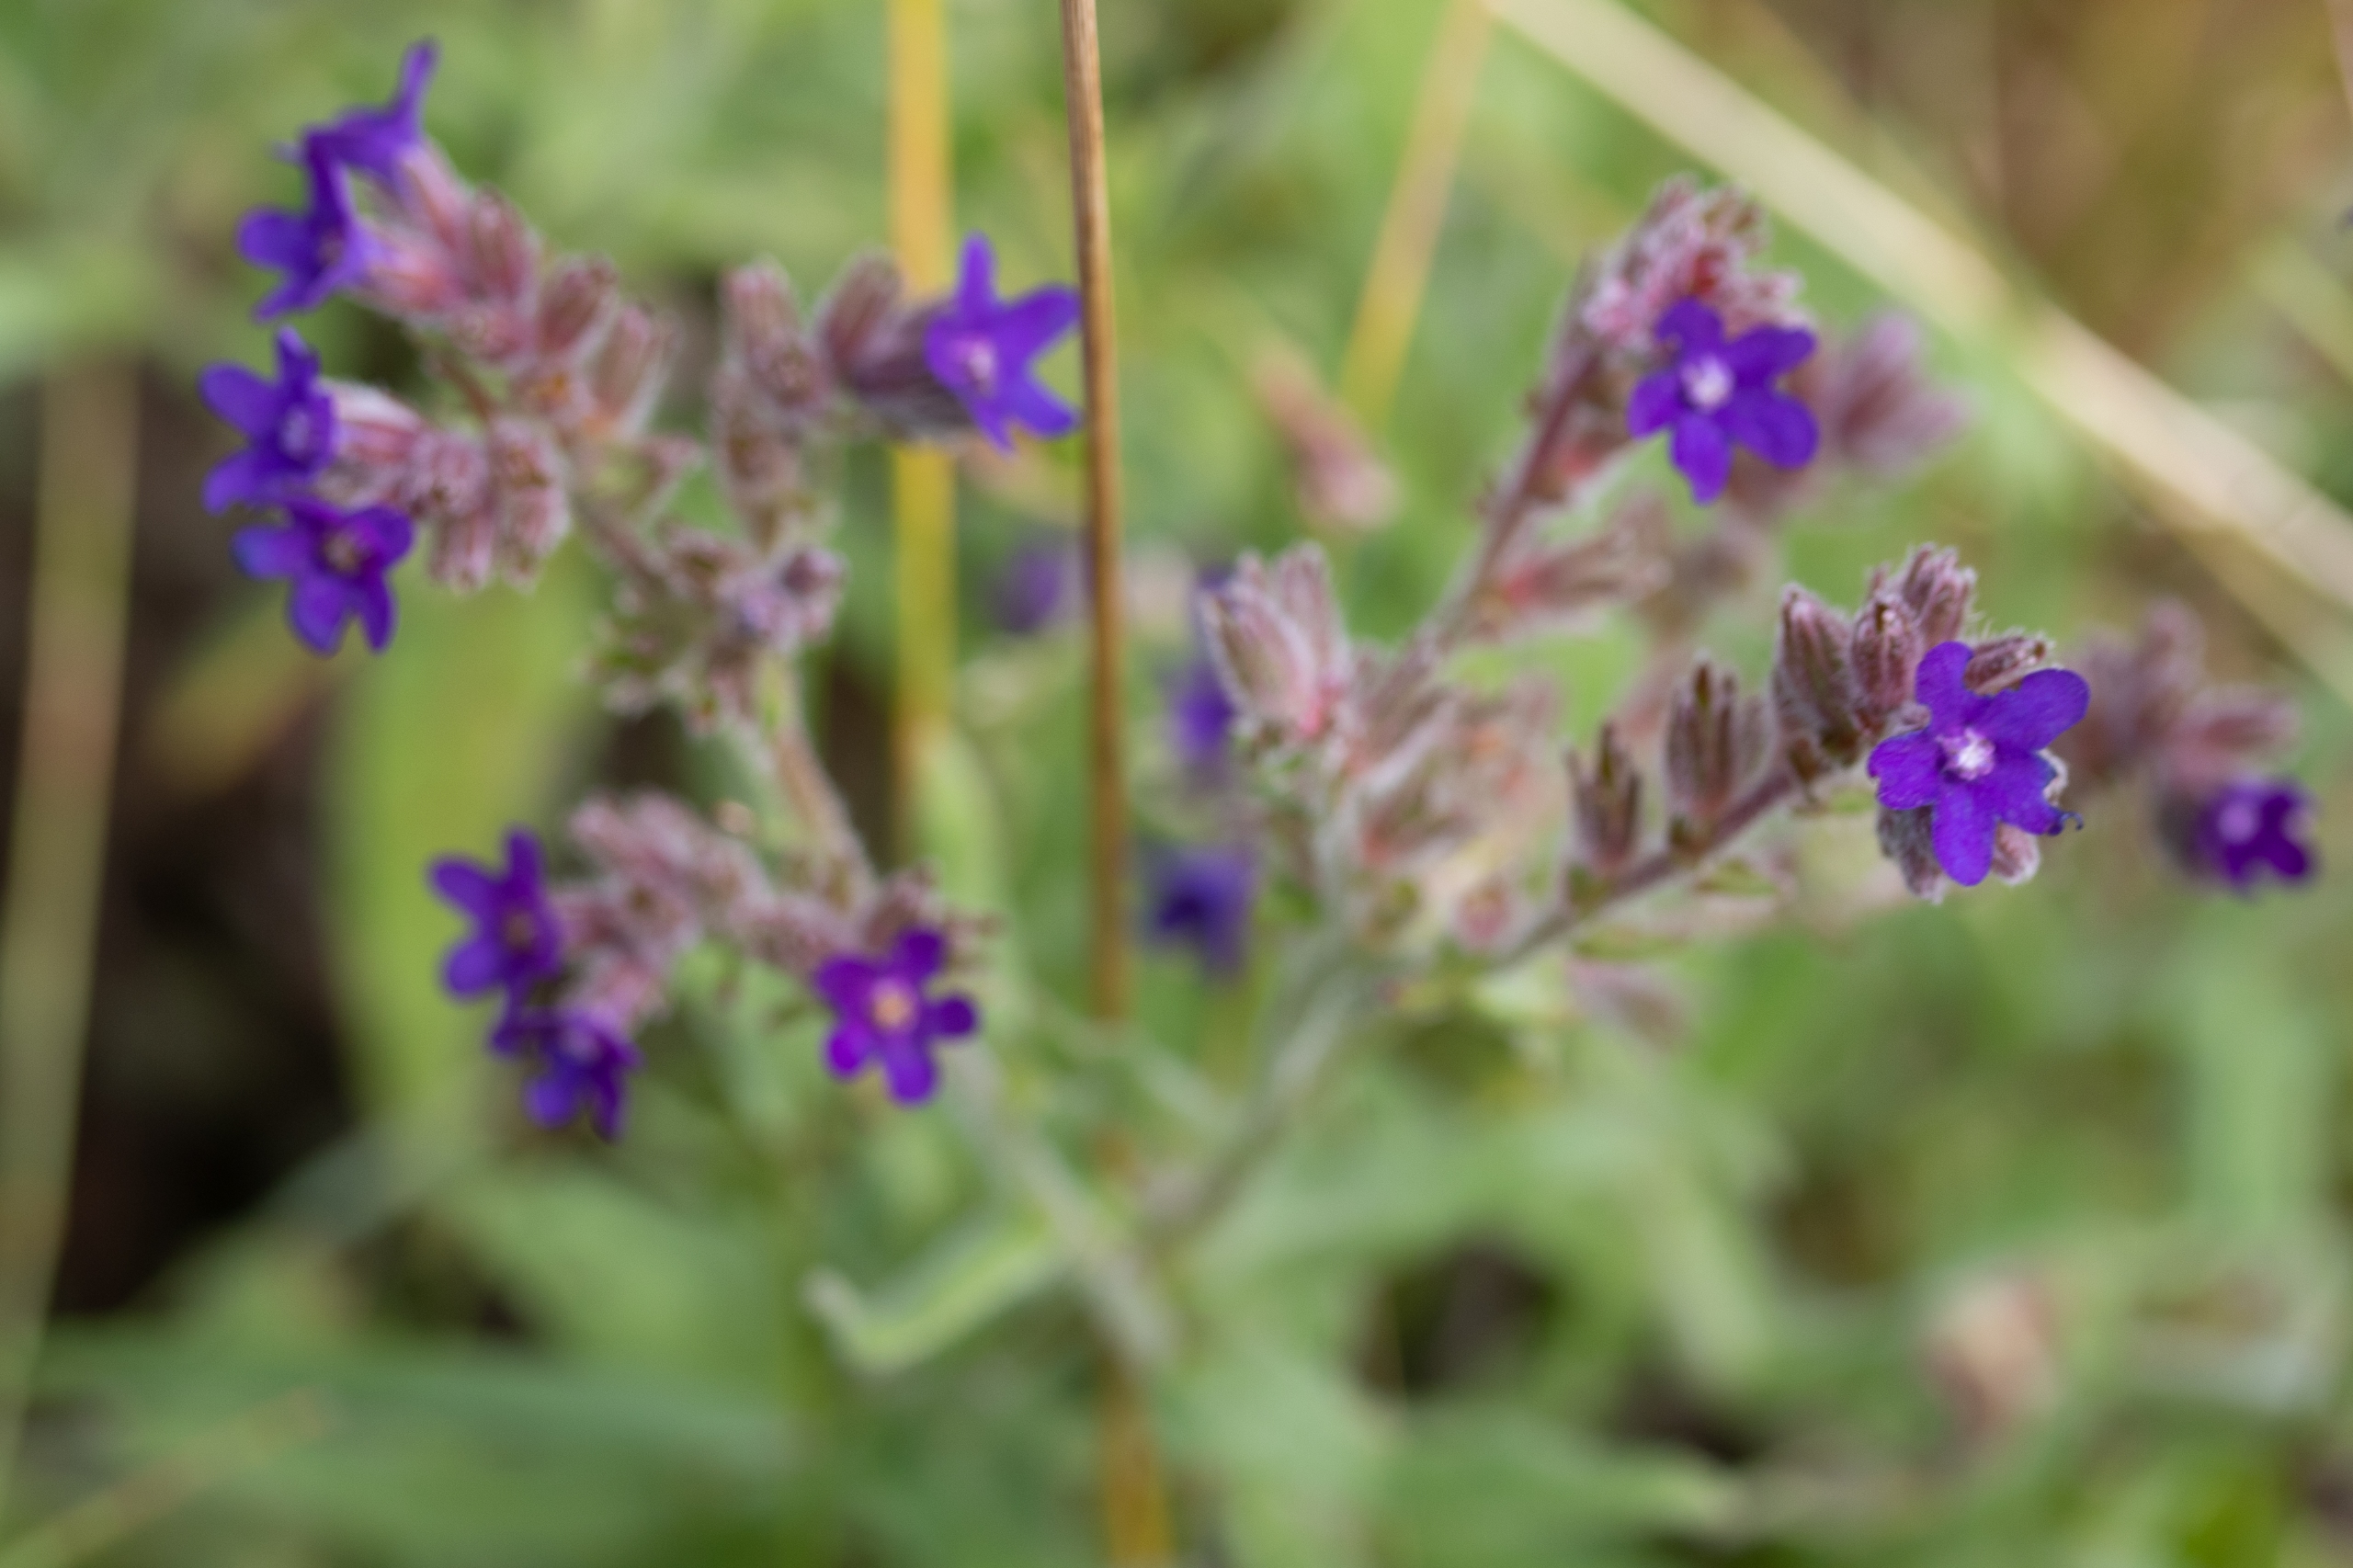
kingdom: Plantae
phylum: Tracheophyta
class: Magnoliopsida
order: Boraginales
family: Boraginaceae
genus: Anchusa
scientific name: Anchusa officinalis
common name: Læge-oksetunge
